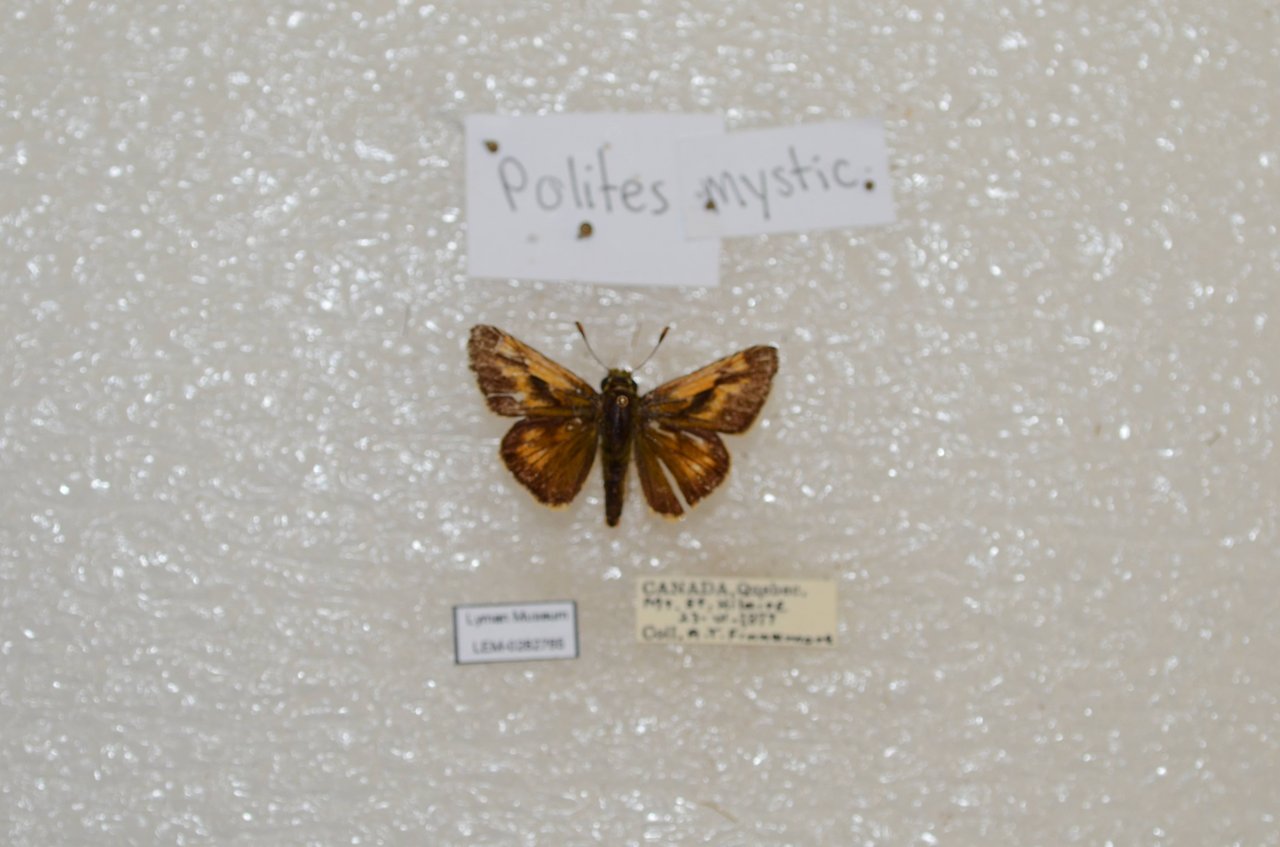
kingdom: Animalia
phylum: Arthropoda
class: Insecta
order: Lepidoptera
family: Hesperiidae
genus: Polites
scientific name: Polites
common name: Long Dash Skipper
